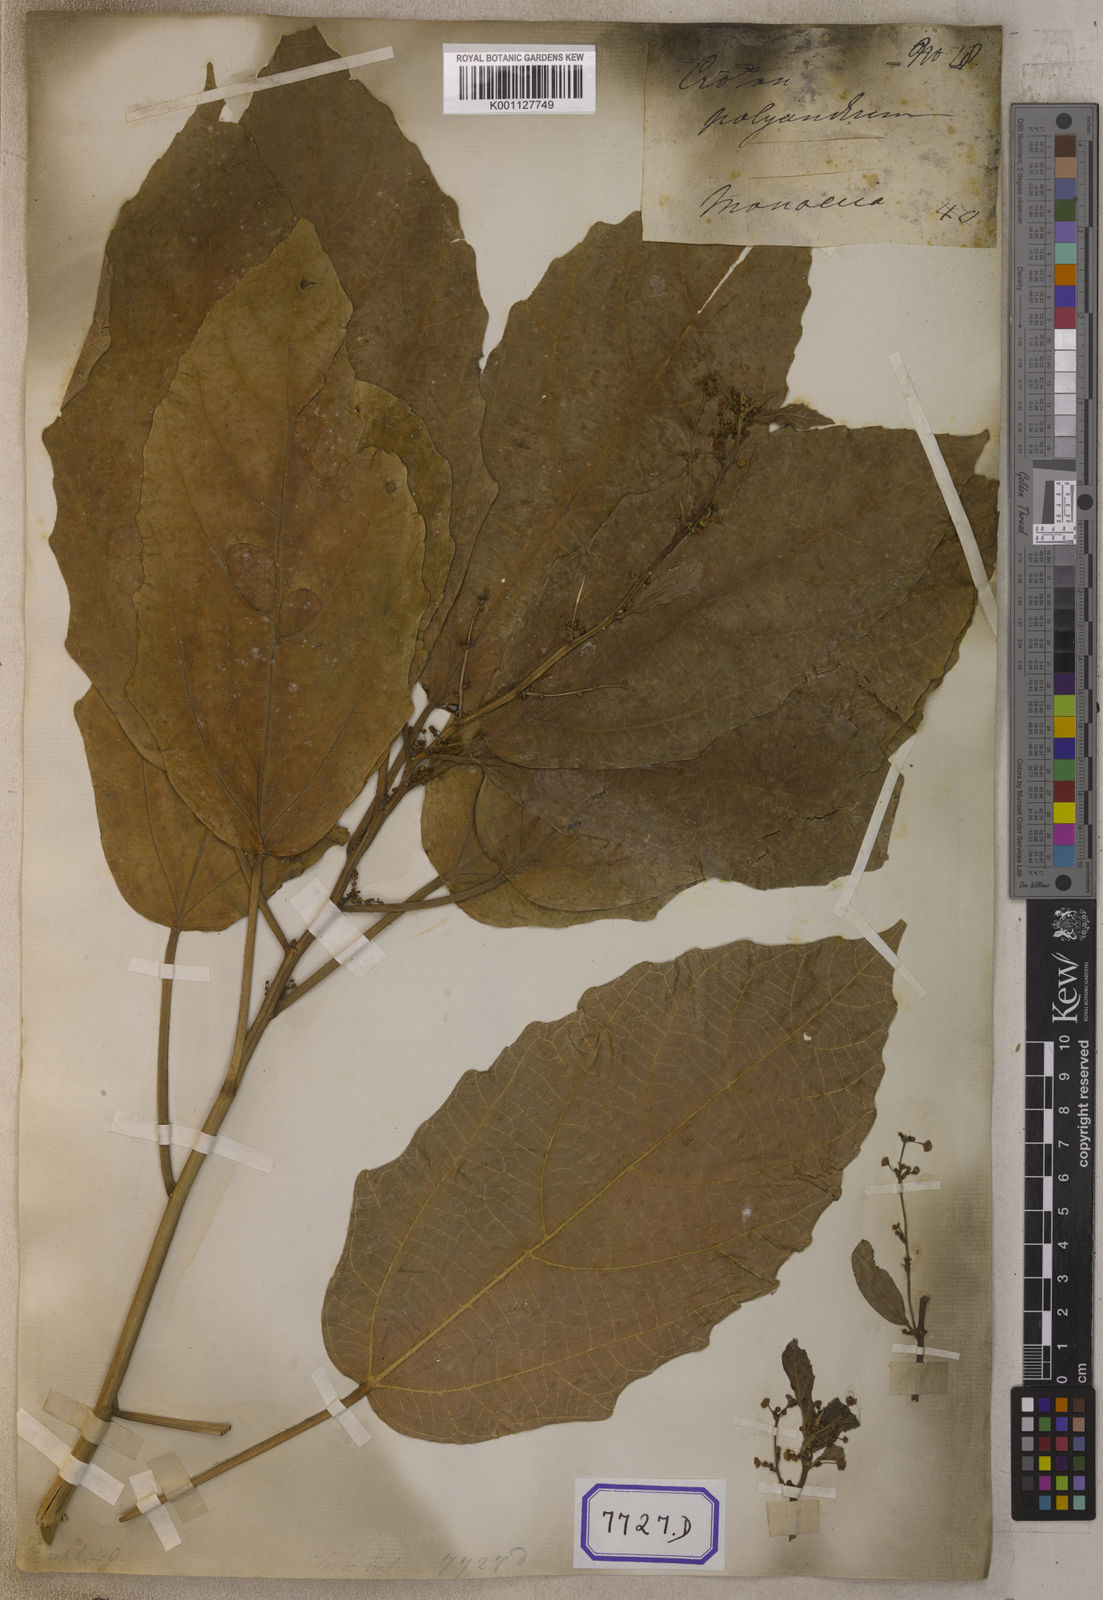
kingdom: Plantae
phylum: Tracheophyta
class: Magnoliopsida
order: Malpighiales
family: Euphorbiaceae
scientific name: Euphorbiaceae
